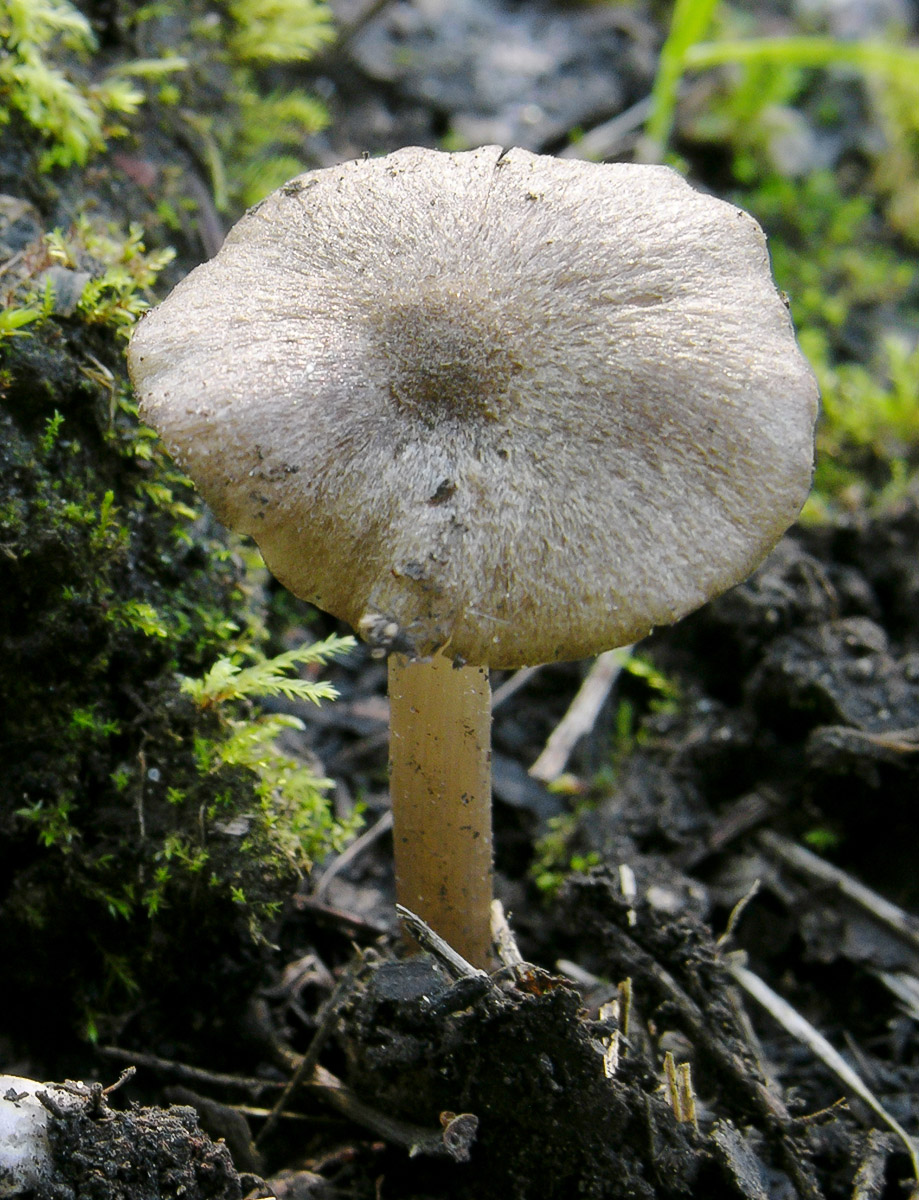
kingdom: Fungi
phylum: Basidiomycota
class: Agaricomycetes
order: Agaricales
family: Entolomataceae
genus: Entoloma
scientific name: Entoloma triste
